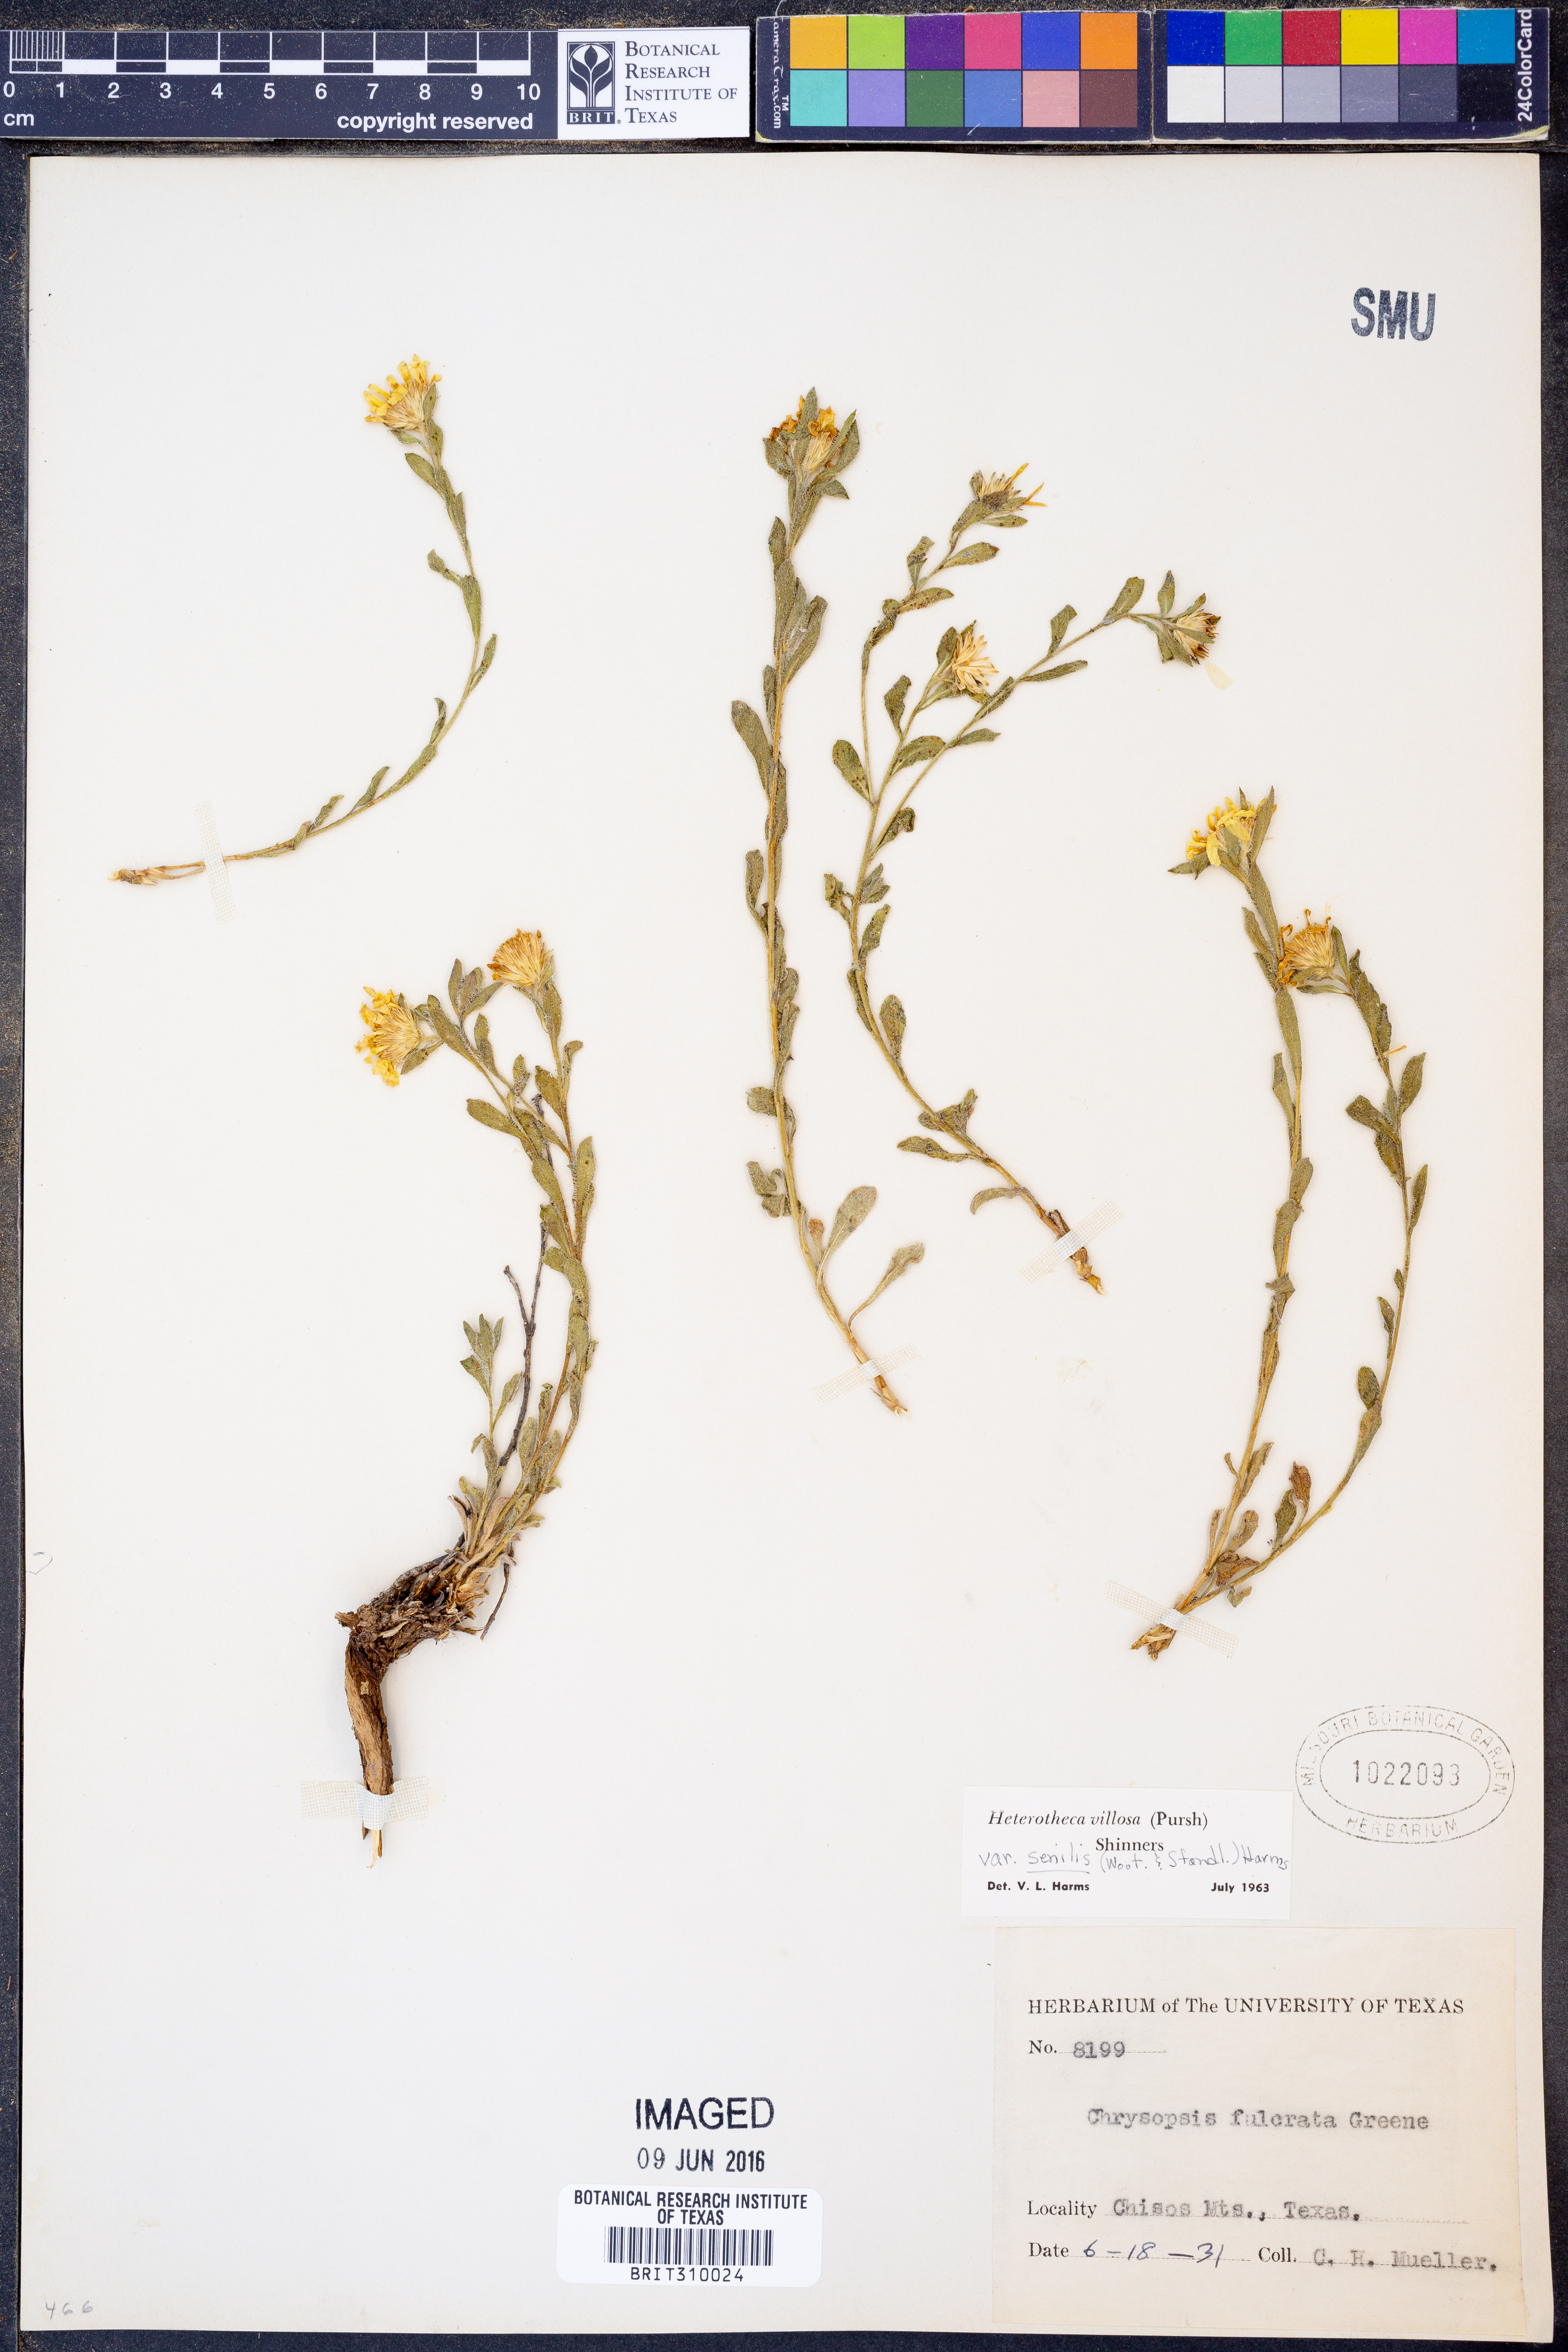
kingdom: Plantae
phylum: Tracheophyta
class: Magnoliopsida
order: Asterales
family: Asteraceae
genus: Heterotheca
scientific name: Heterotheca villosa
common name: Hairy false goldenaster
